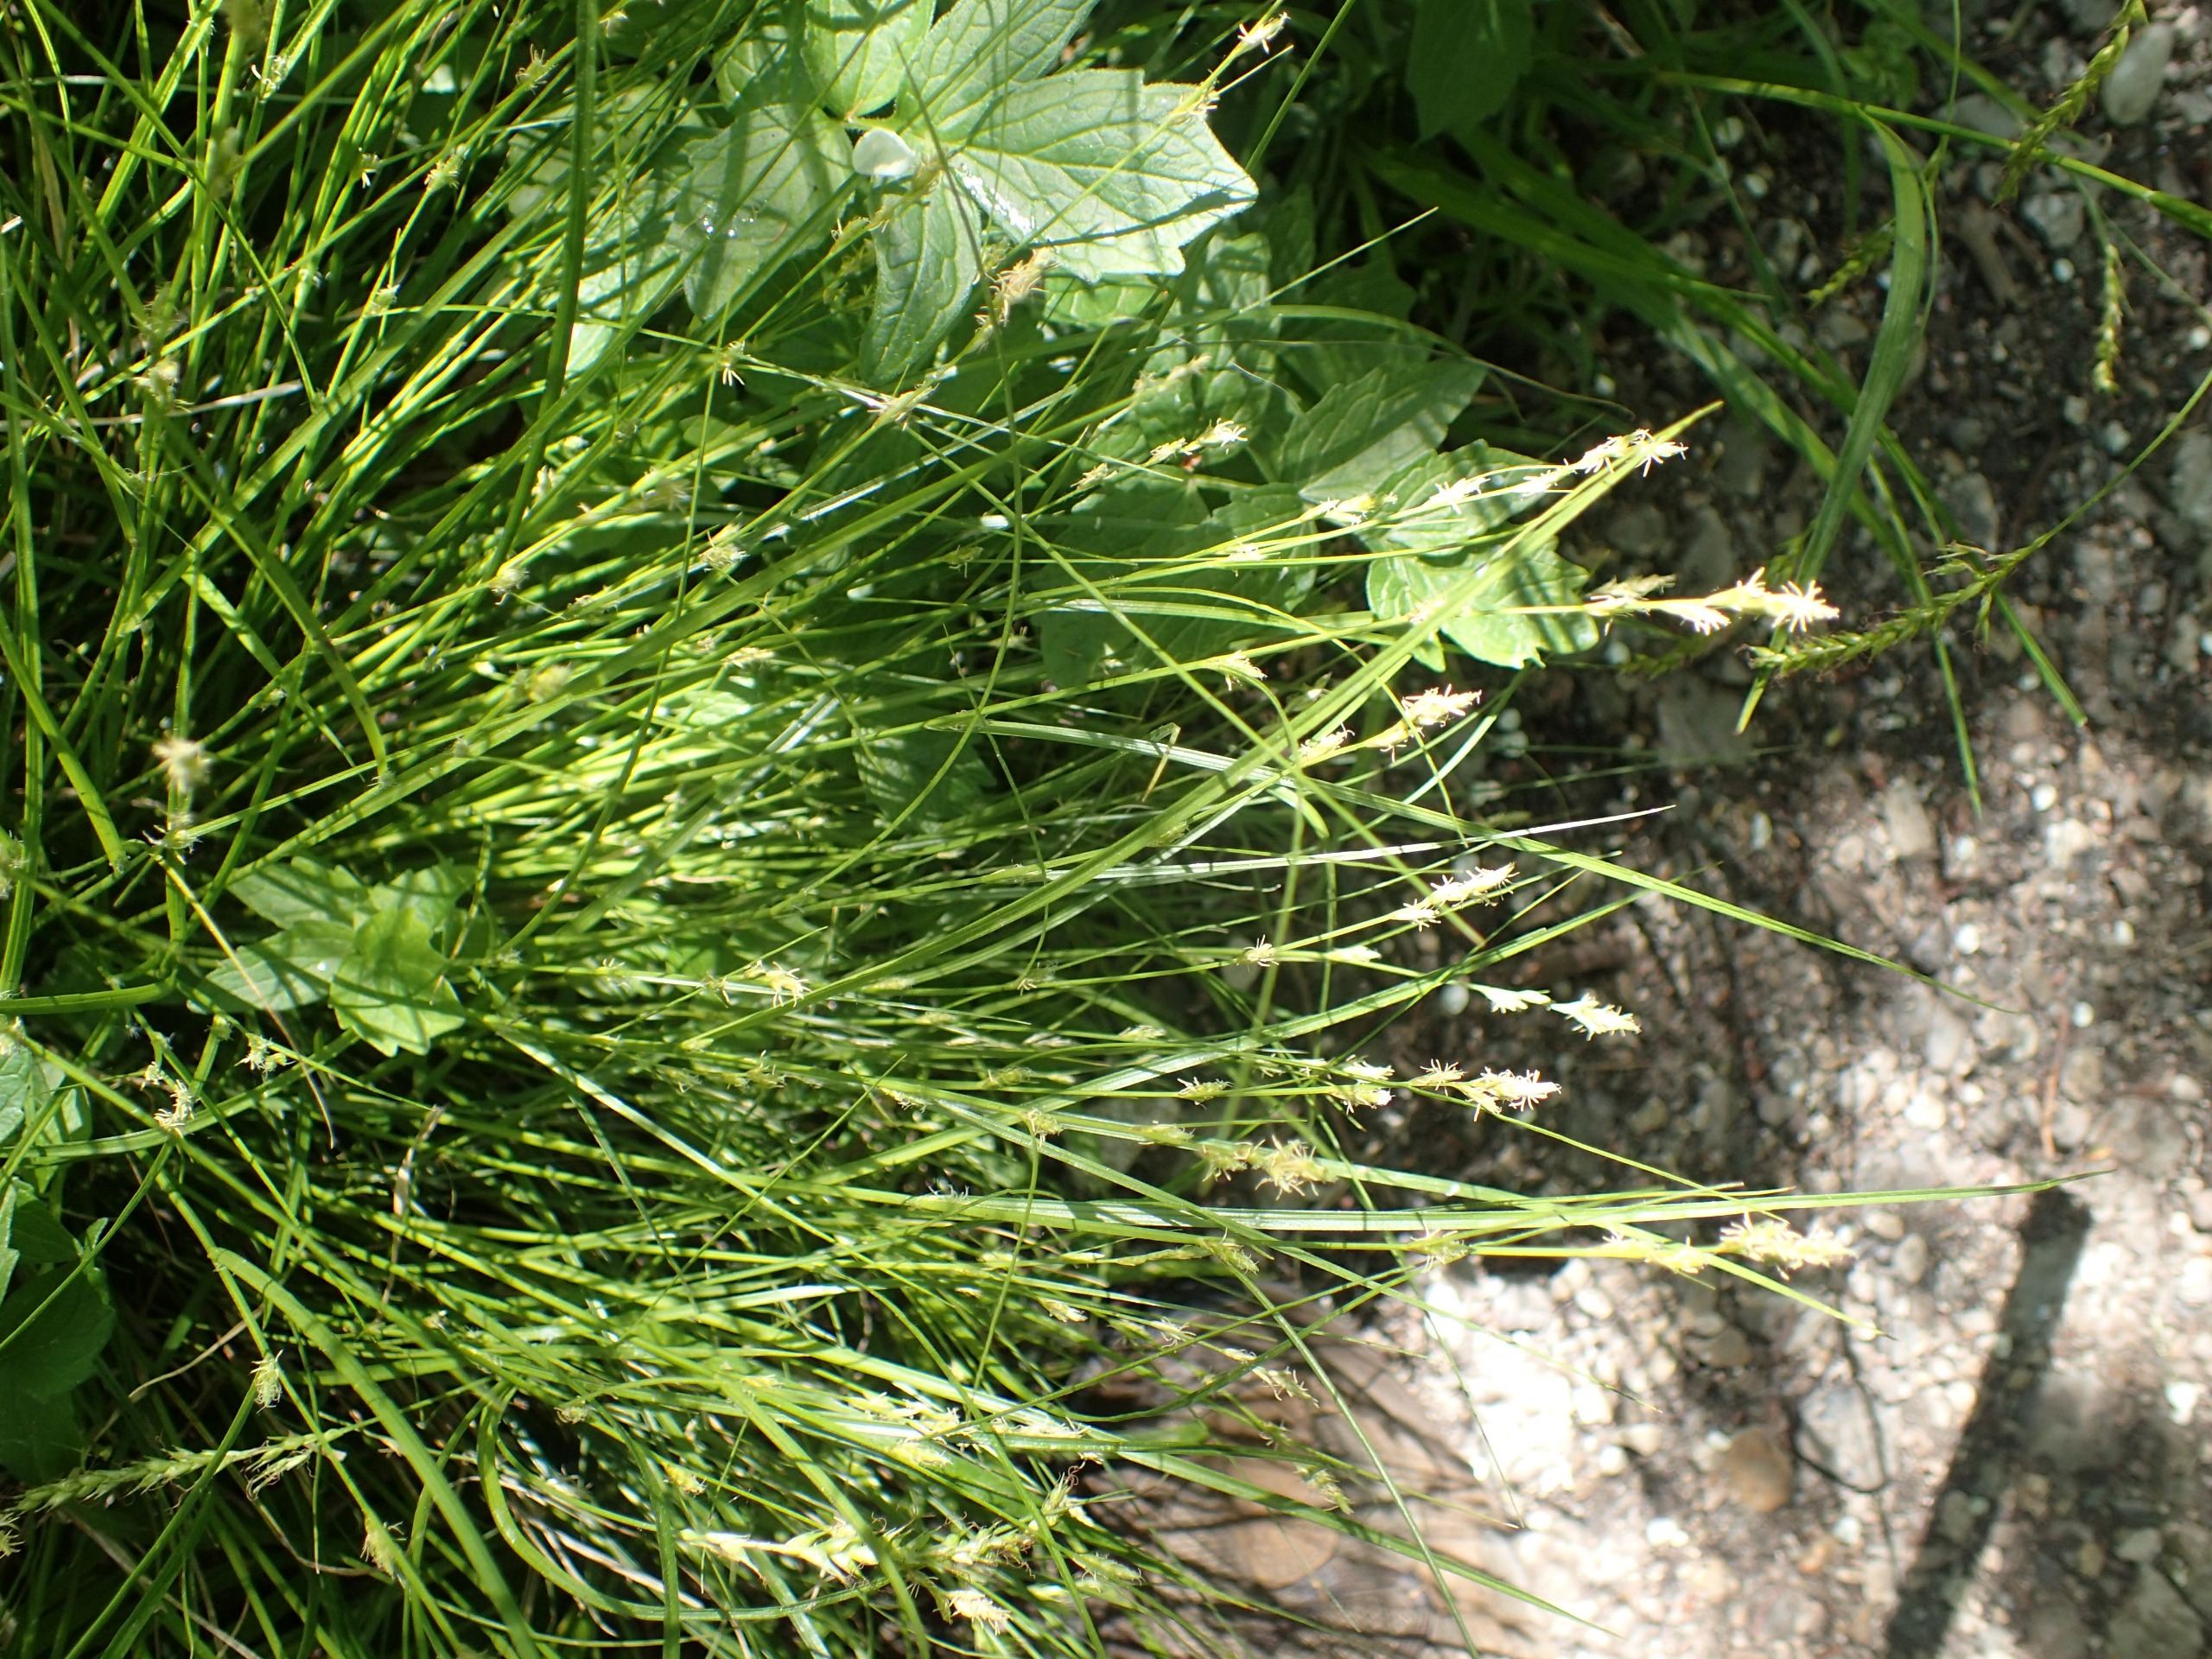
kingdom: Plantae
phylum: Tracheophyta
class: Liliopsida
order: Poales
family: Cyperaceae
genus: Carex
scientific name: Carex remota
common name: Akselblomstret star
